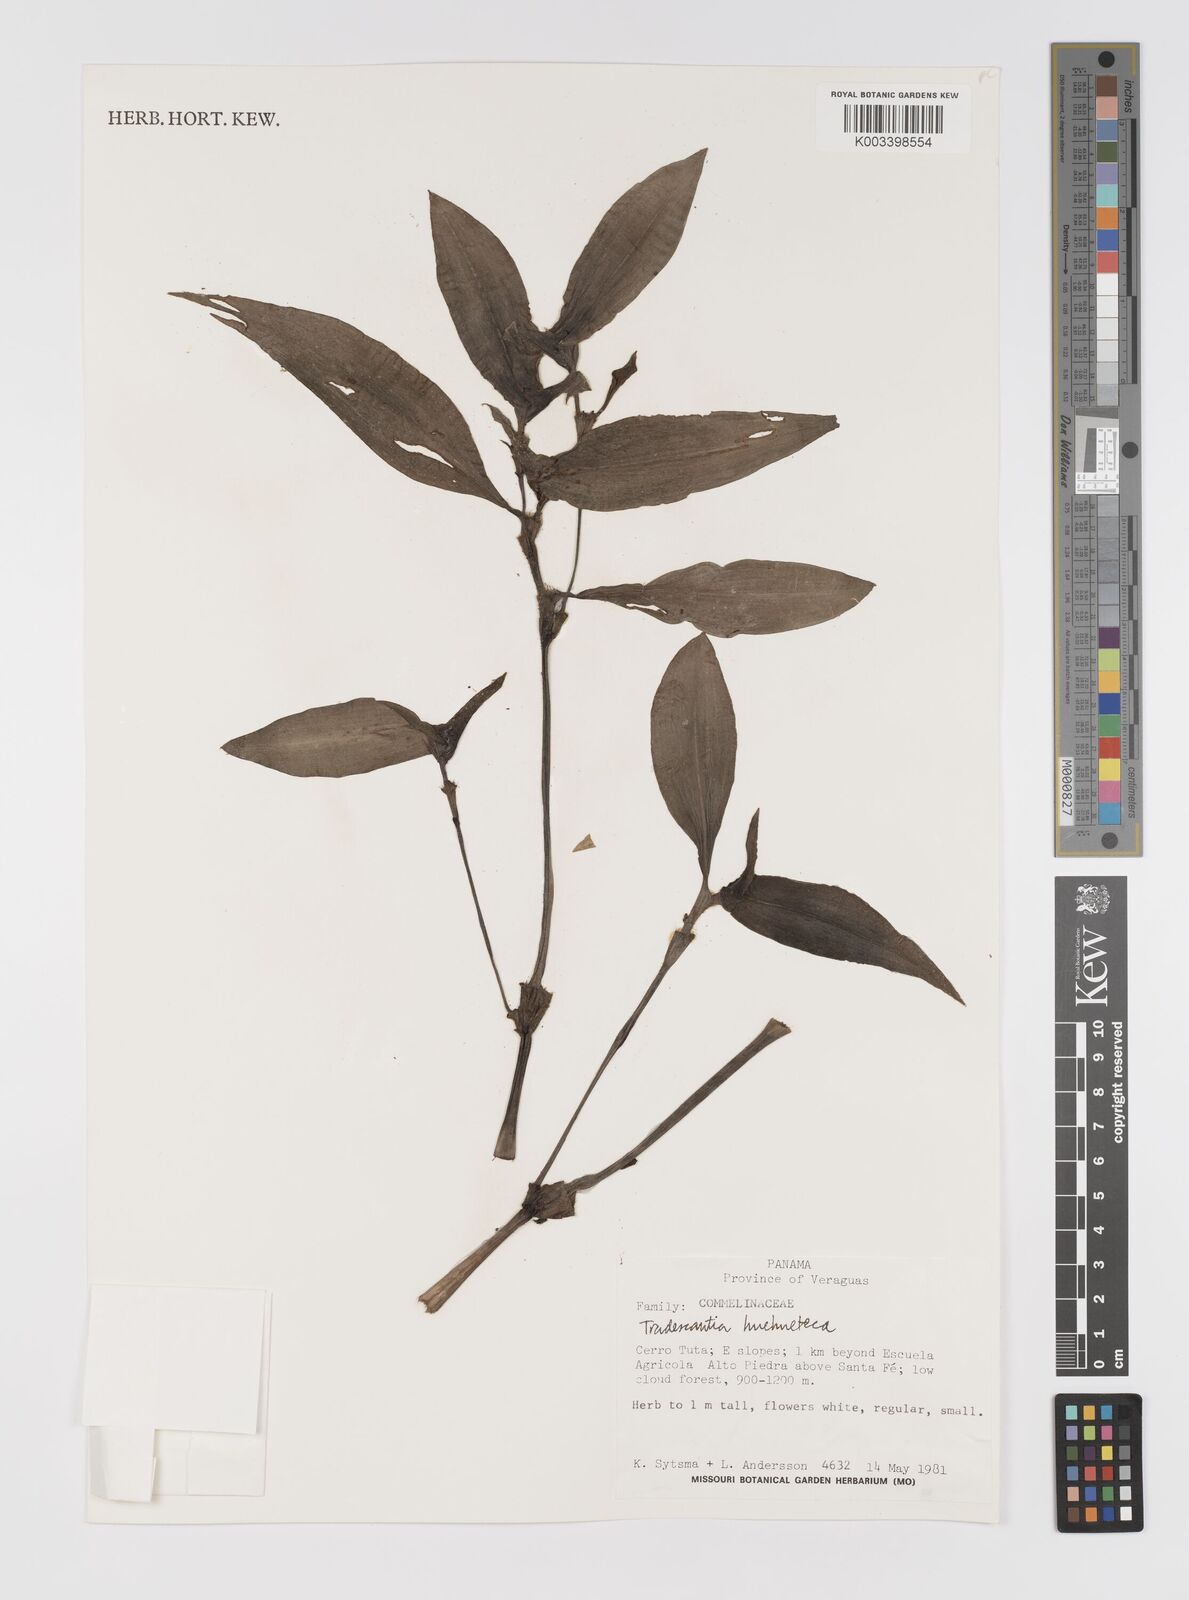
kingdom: Plantae
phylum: Tracheophyta
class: Liliopsida
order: Commelinales
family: Commelinaceae
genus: Tradescantia
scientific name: Tradescantia huehueteca
